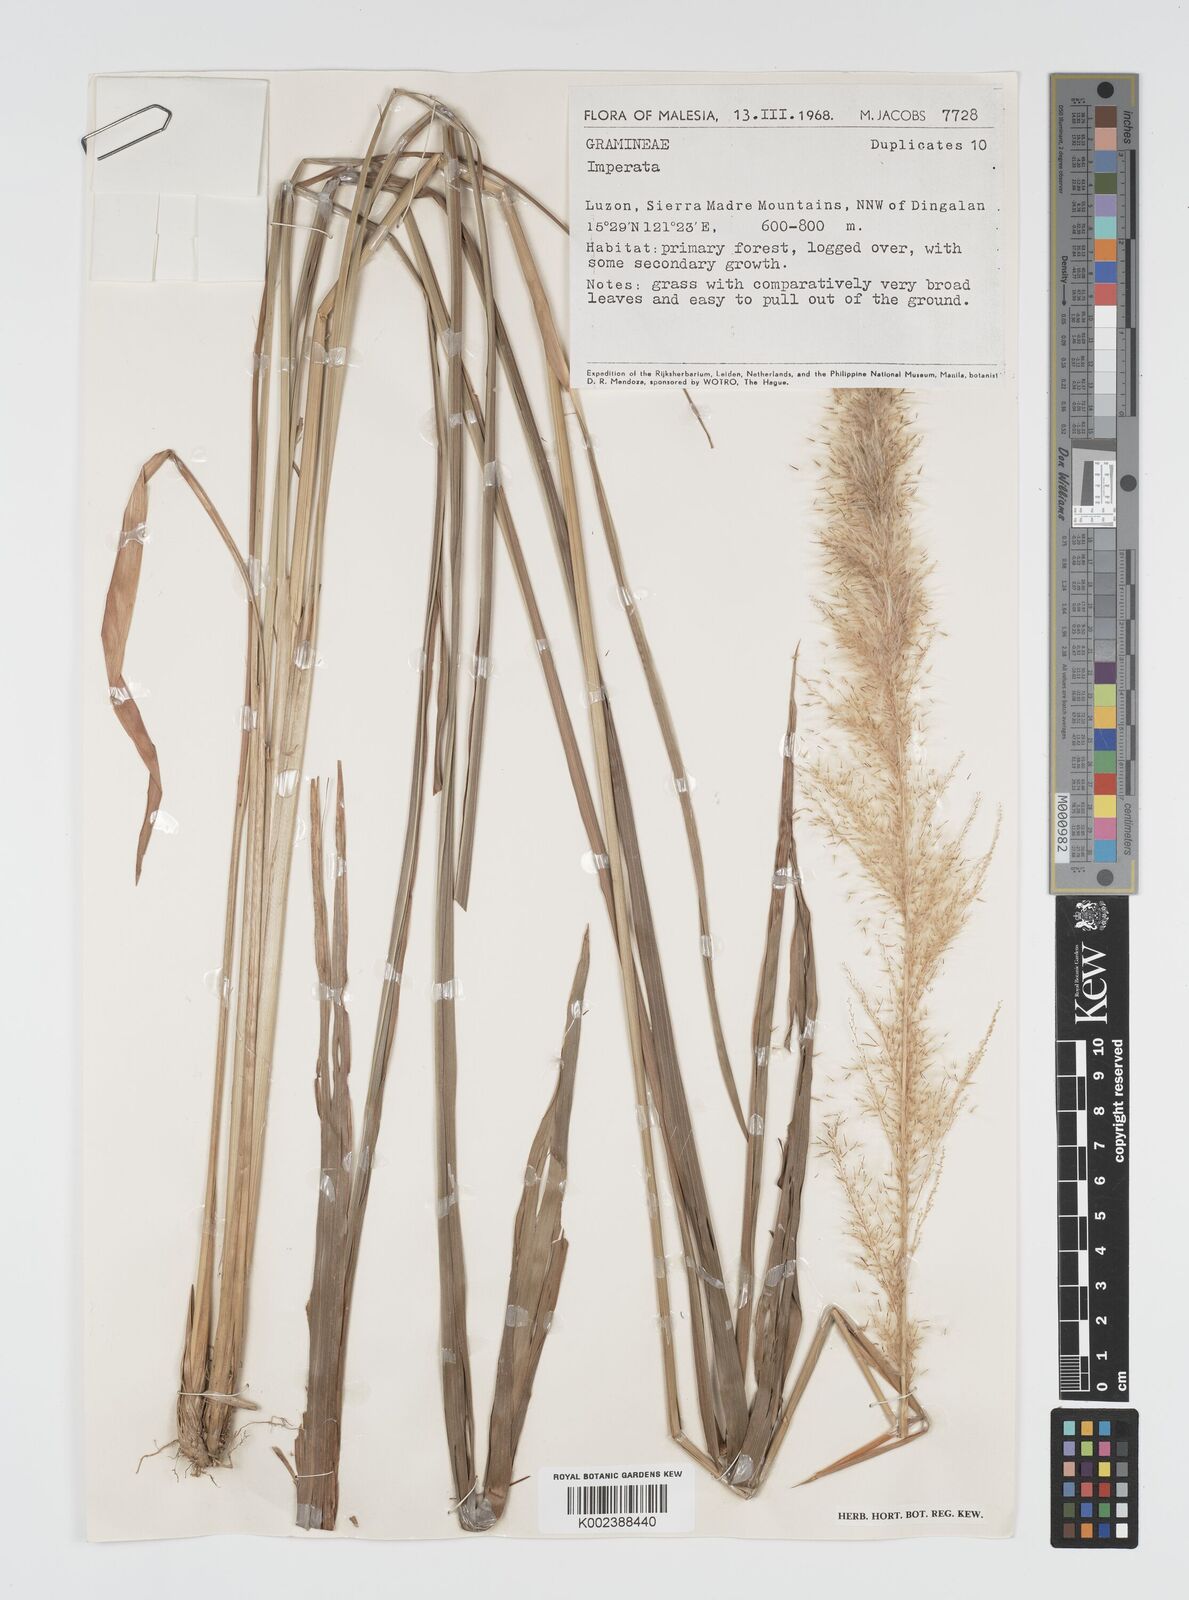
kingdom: Plantae
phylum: Tracheophyta
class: Liliopsida
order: Poales
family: Poaceae
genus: Imperata
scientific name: Imperata conferta
